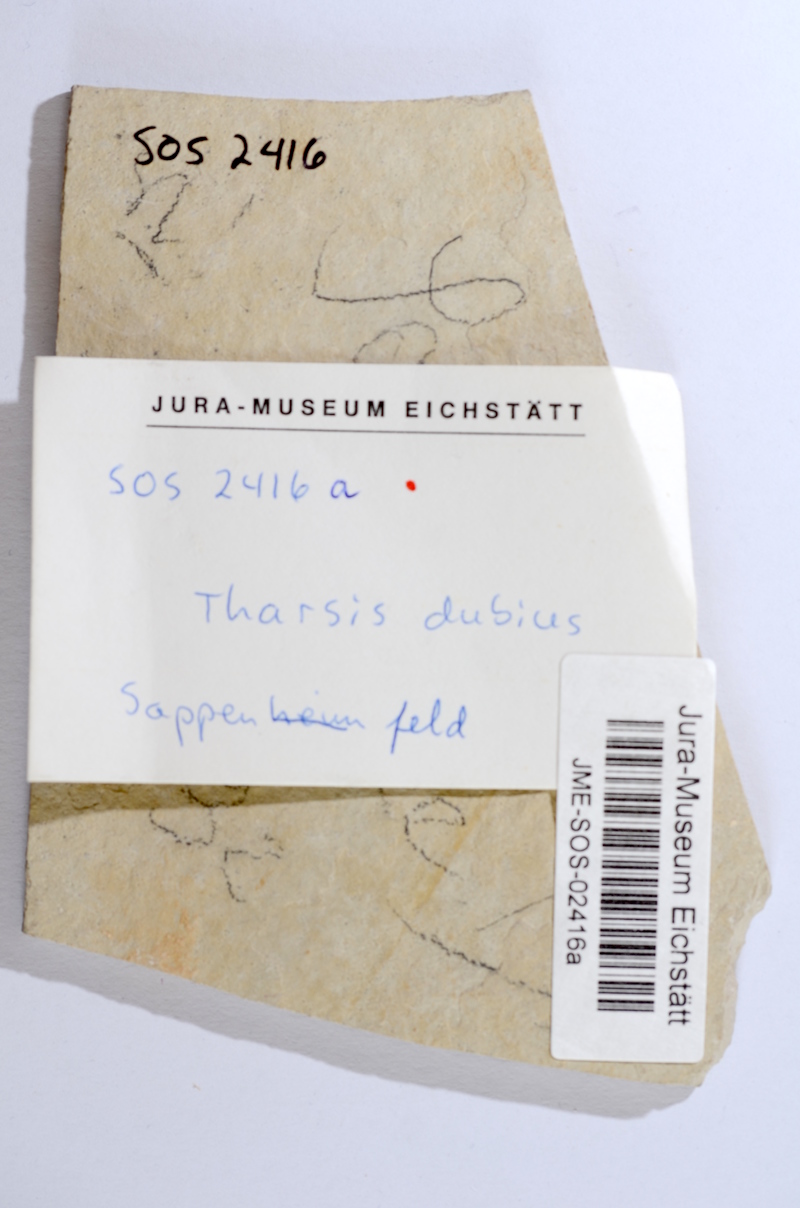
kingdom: Animalia
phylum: Chordata
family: Ascalaboidae
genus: Tharsis
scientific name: Tharsis dubius
